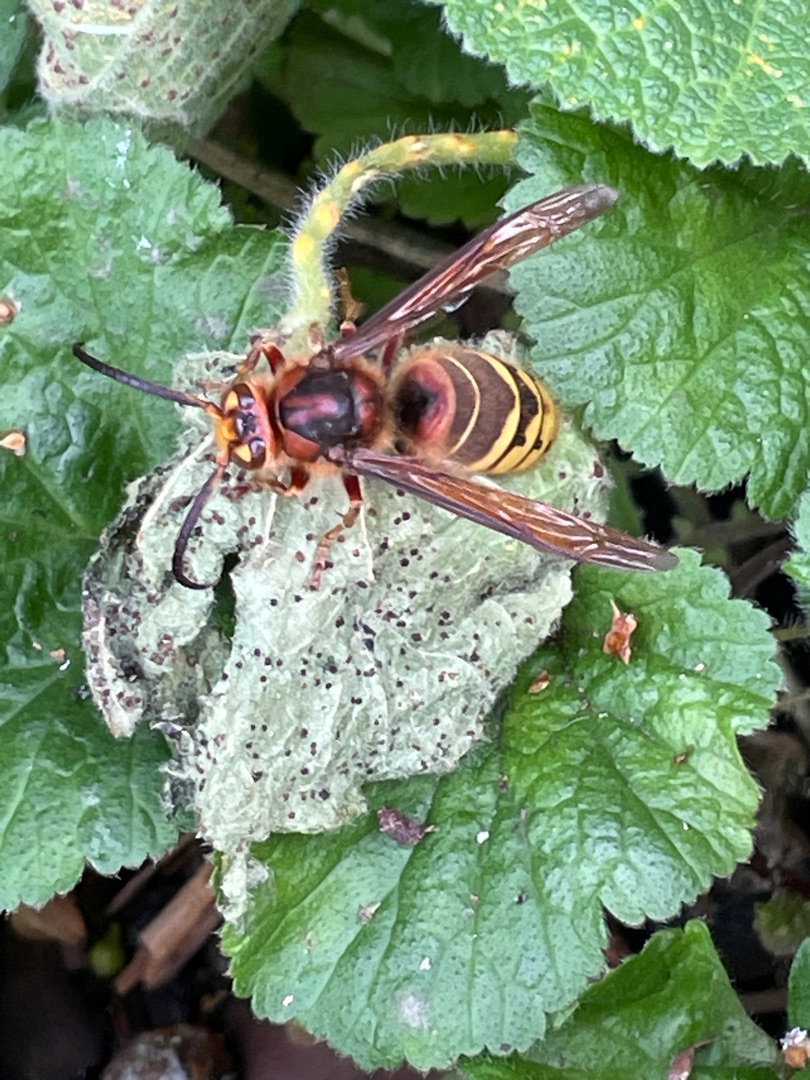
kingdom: Animalia
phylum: Arthropoda
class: Insecta
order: Hymenoptera
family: Vespidae
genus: Vespa
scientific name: Vespa crabro
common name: Stor gedehams
